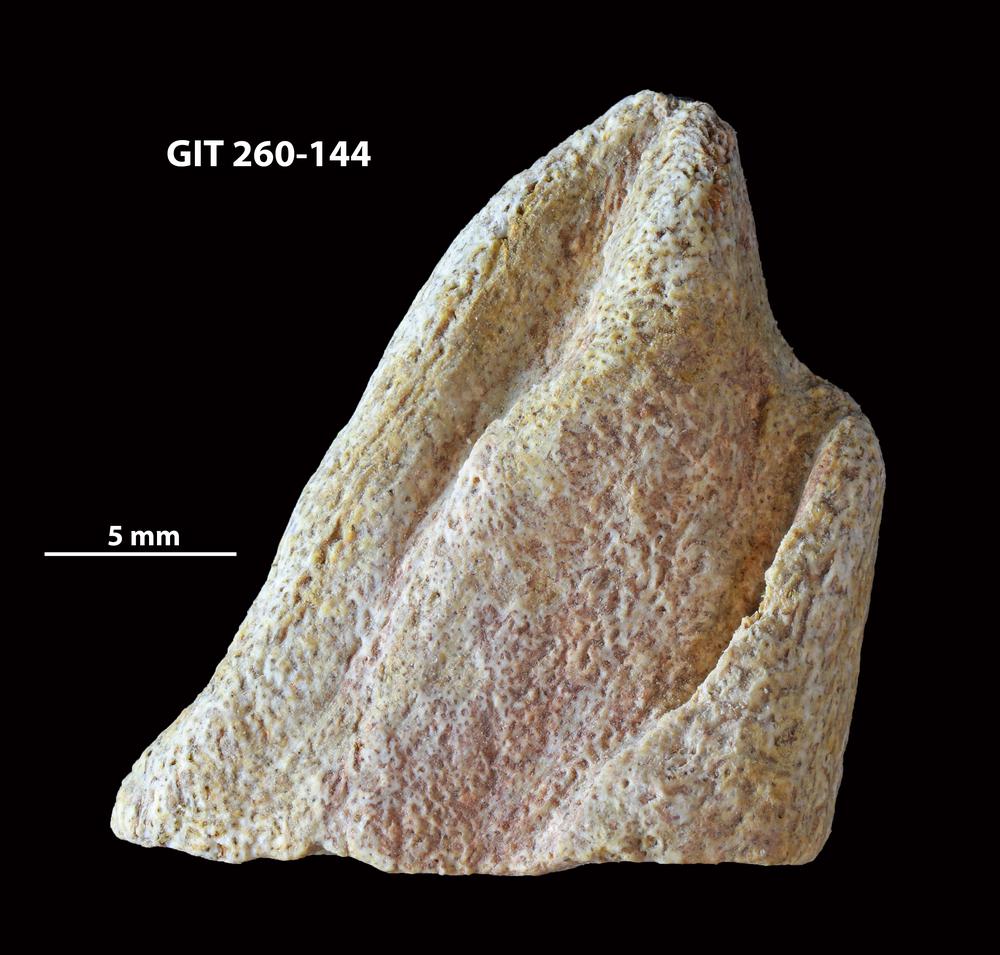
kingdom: Animalia
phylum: Chordata
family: Homostiidae
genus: Homostius
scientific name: Homostius
